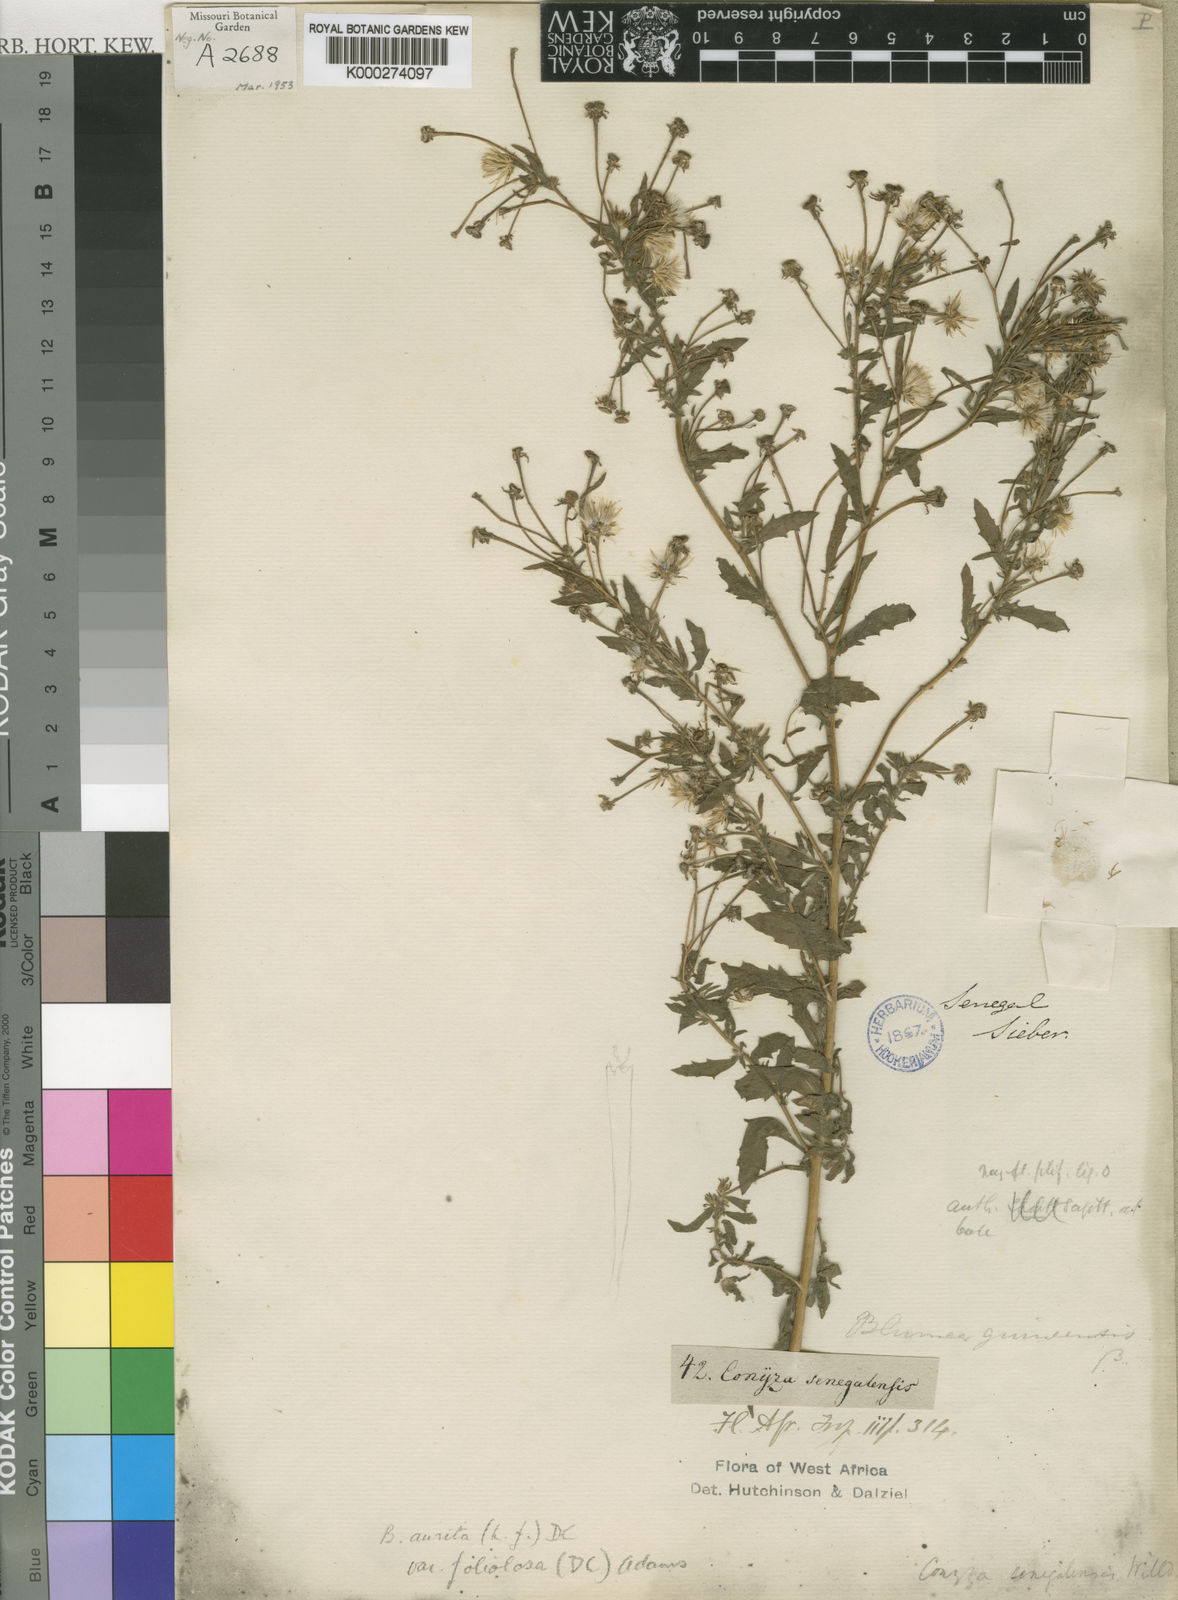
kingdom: Plantae
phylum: Tracheophyta
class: Magnoliopsida
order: Asterales
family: Asteraceae
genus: Pseudoconyza
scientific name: Pseudoconyza viscosa
